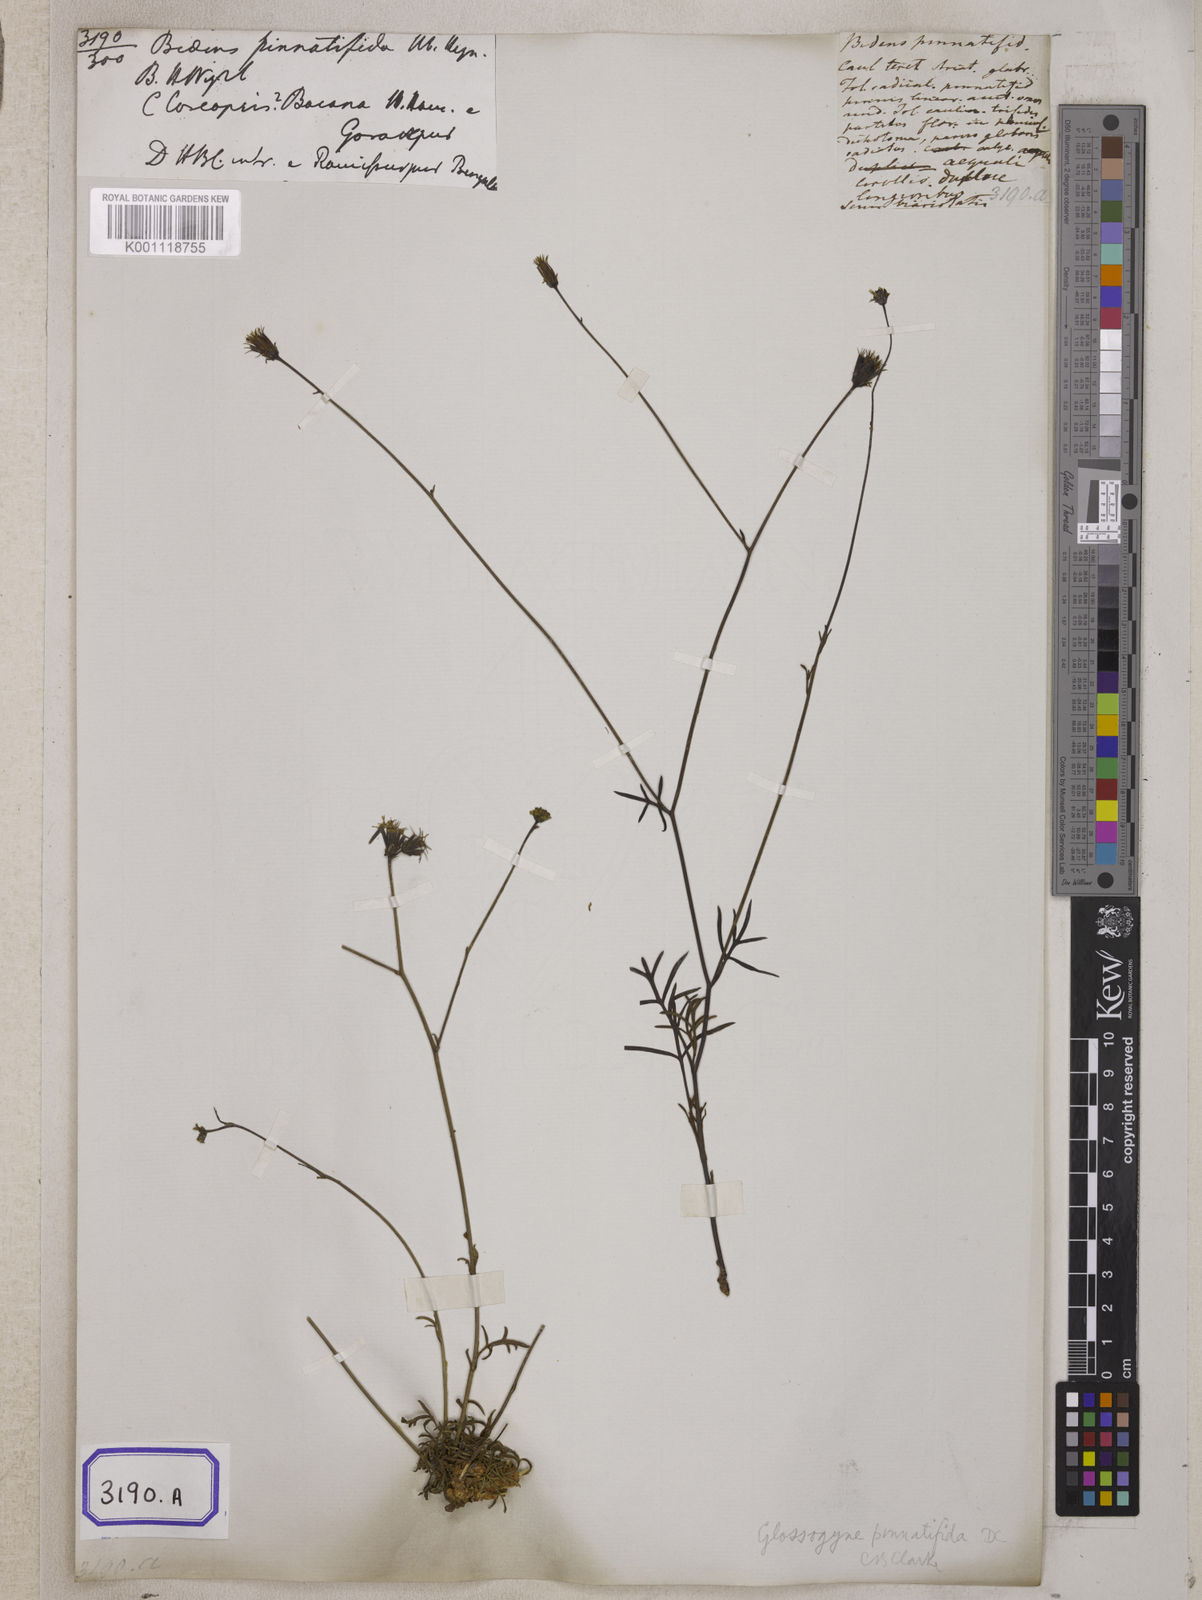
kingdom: Plantae
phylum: Tracheophyta
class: Magnoliopsida
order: Asterales
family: Asteraceae
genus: Bidens
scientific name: Bidens
